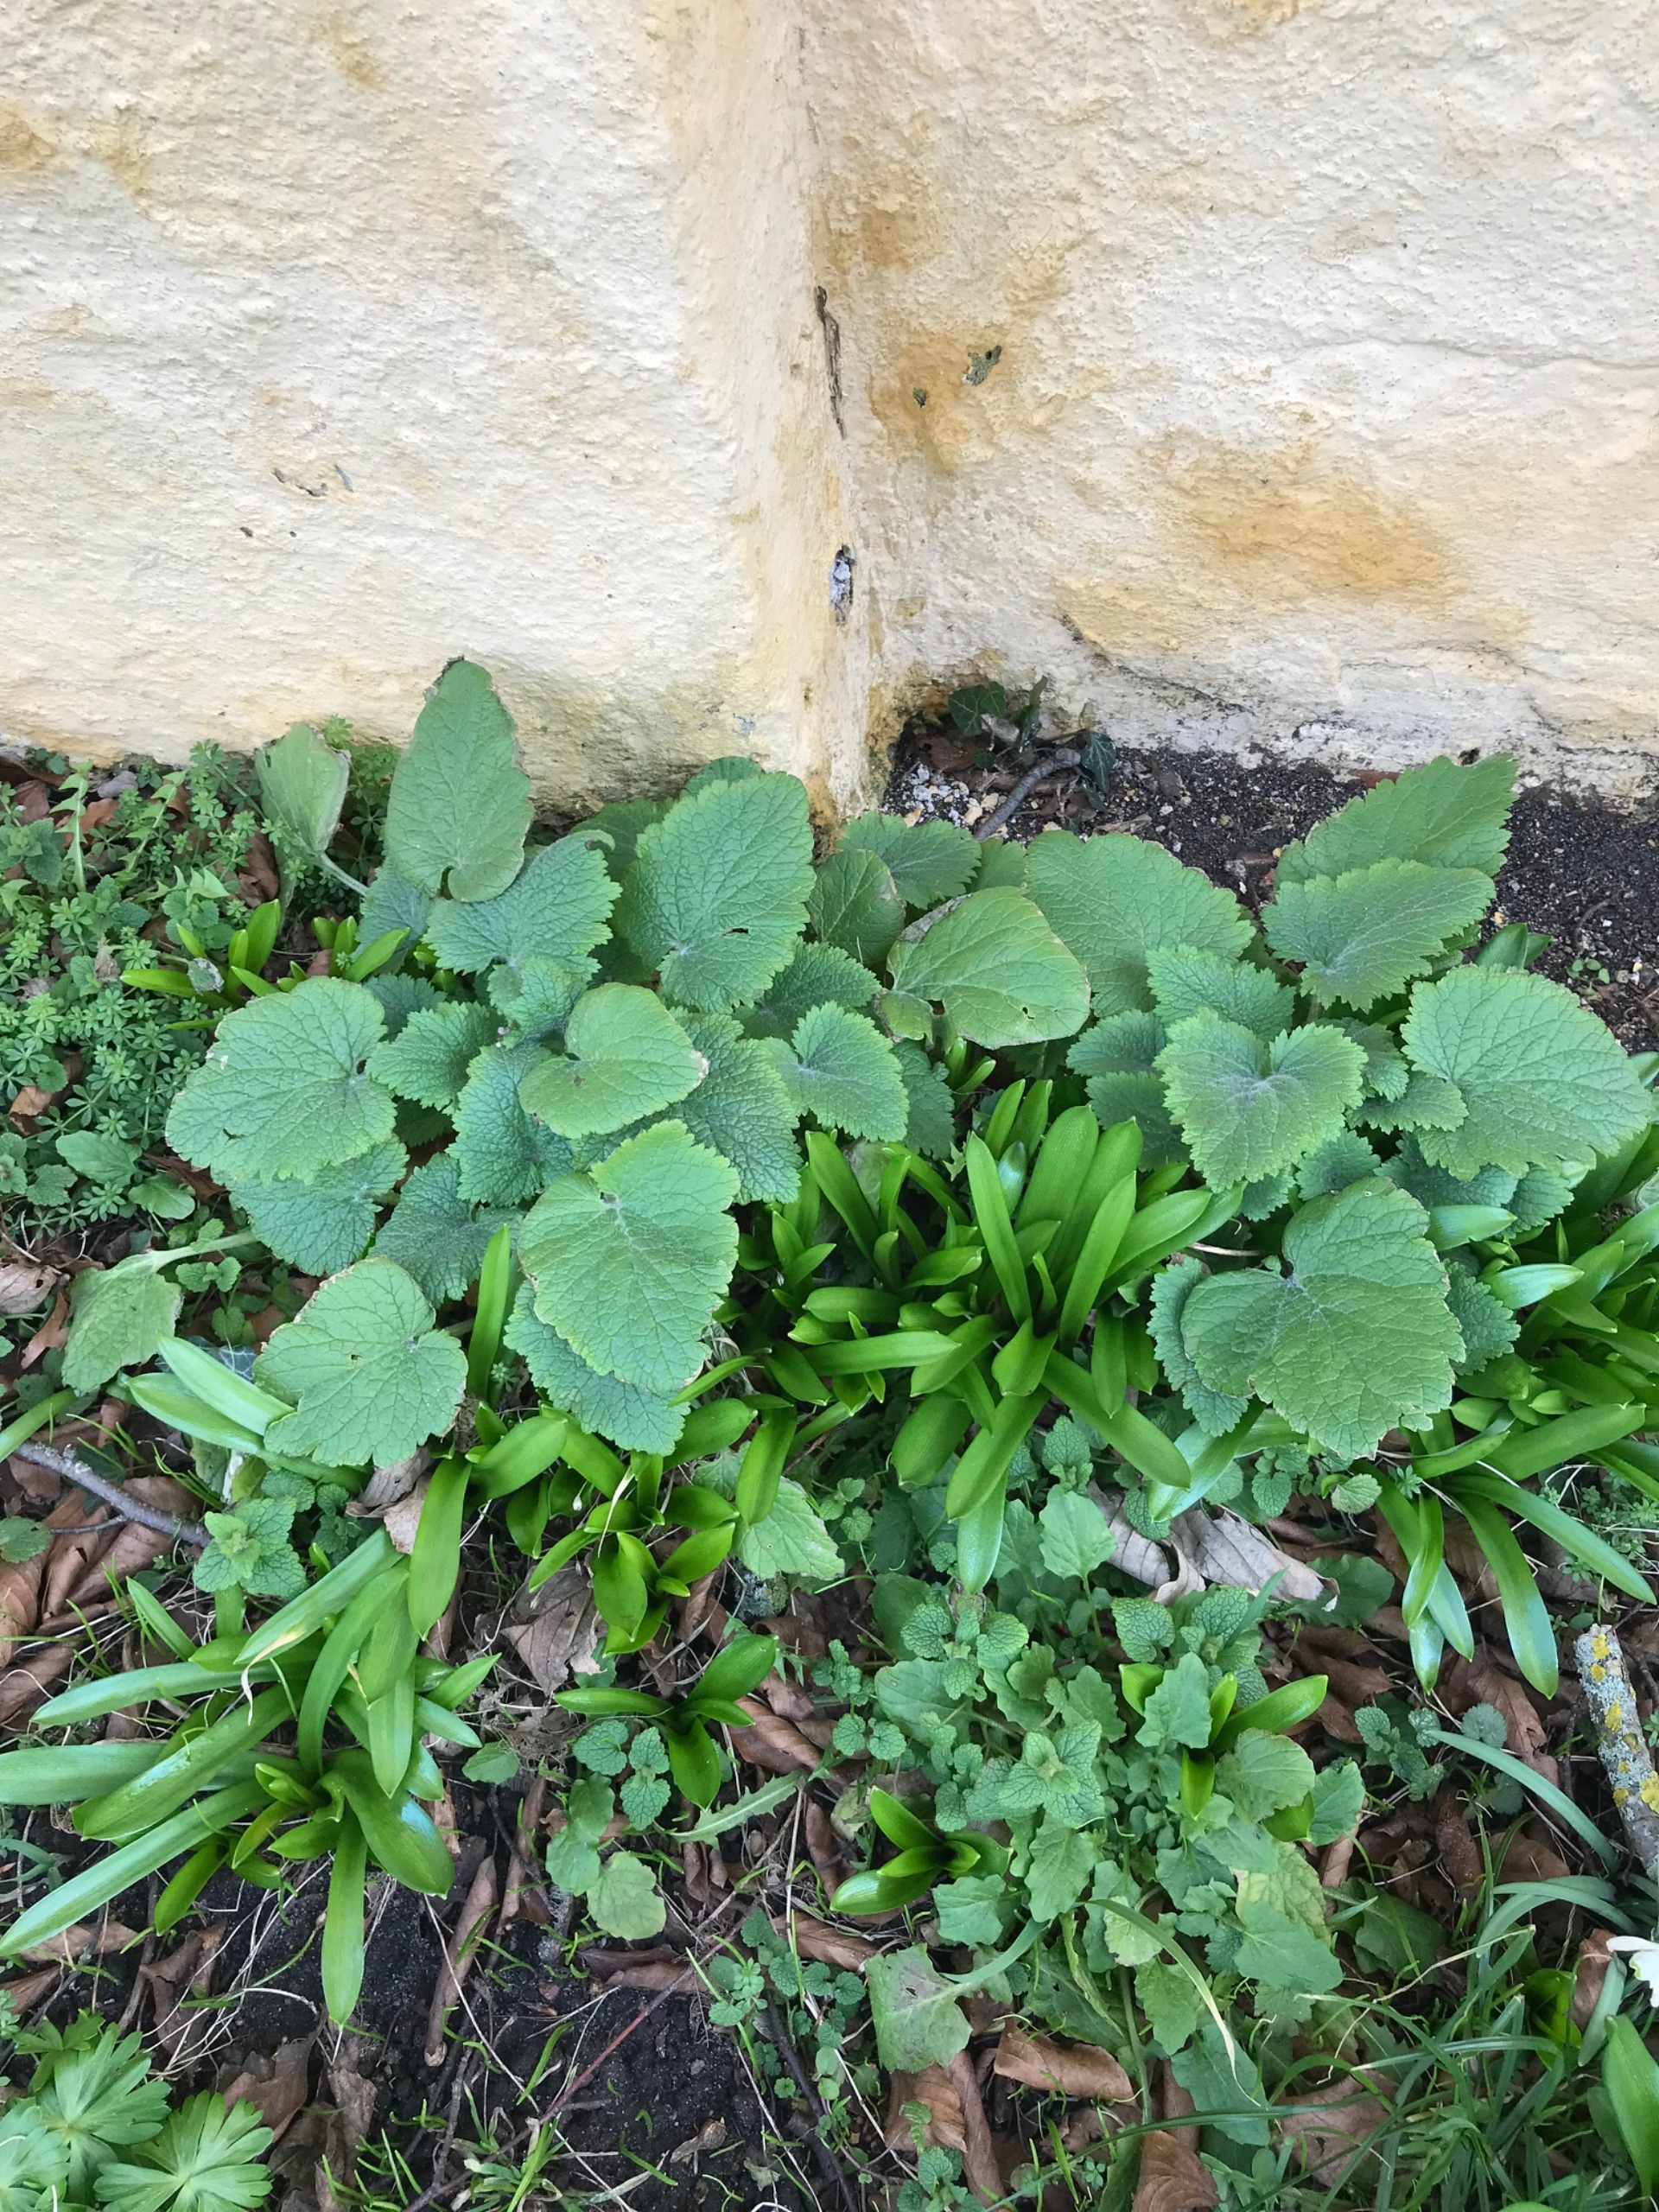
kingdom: Plantae
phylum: Tracheophyta
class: Magnoliopsida
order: Lamiales
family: Scrophulariaceae
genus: Scrophularia
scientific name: Scrophularia vernalis
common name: Vår-brunrod
